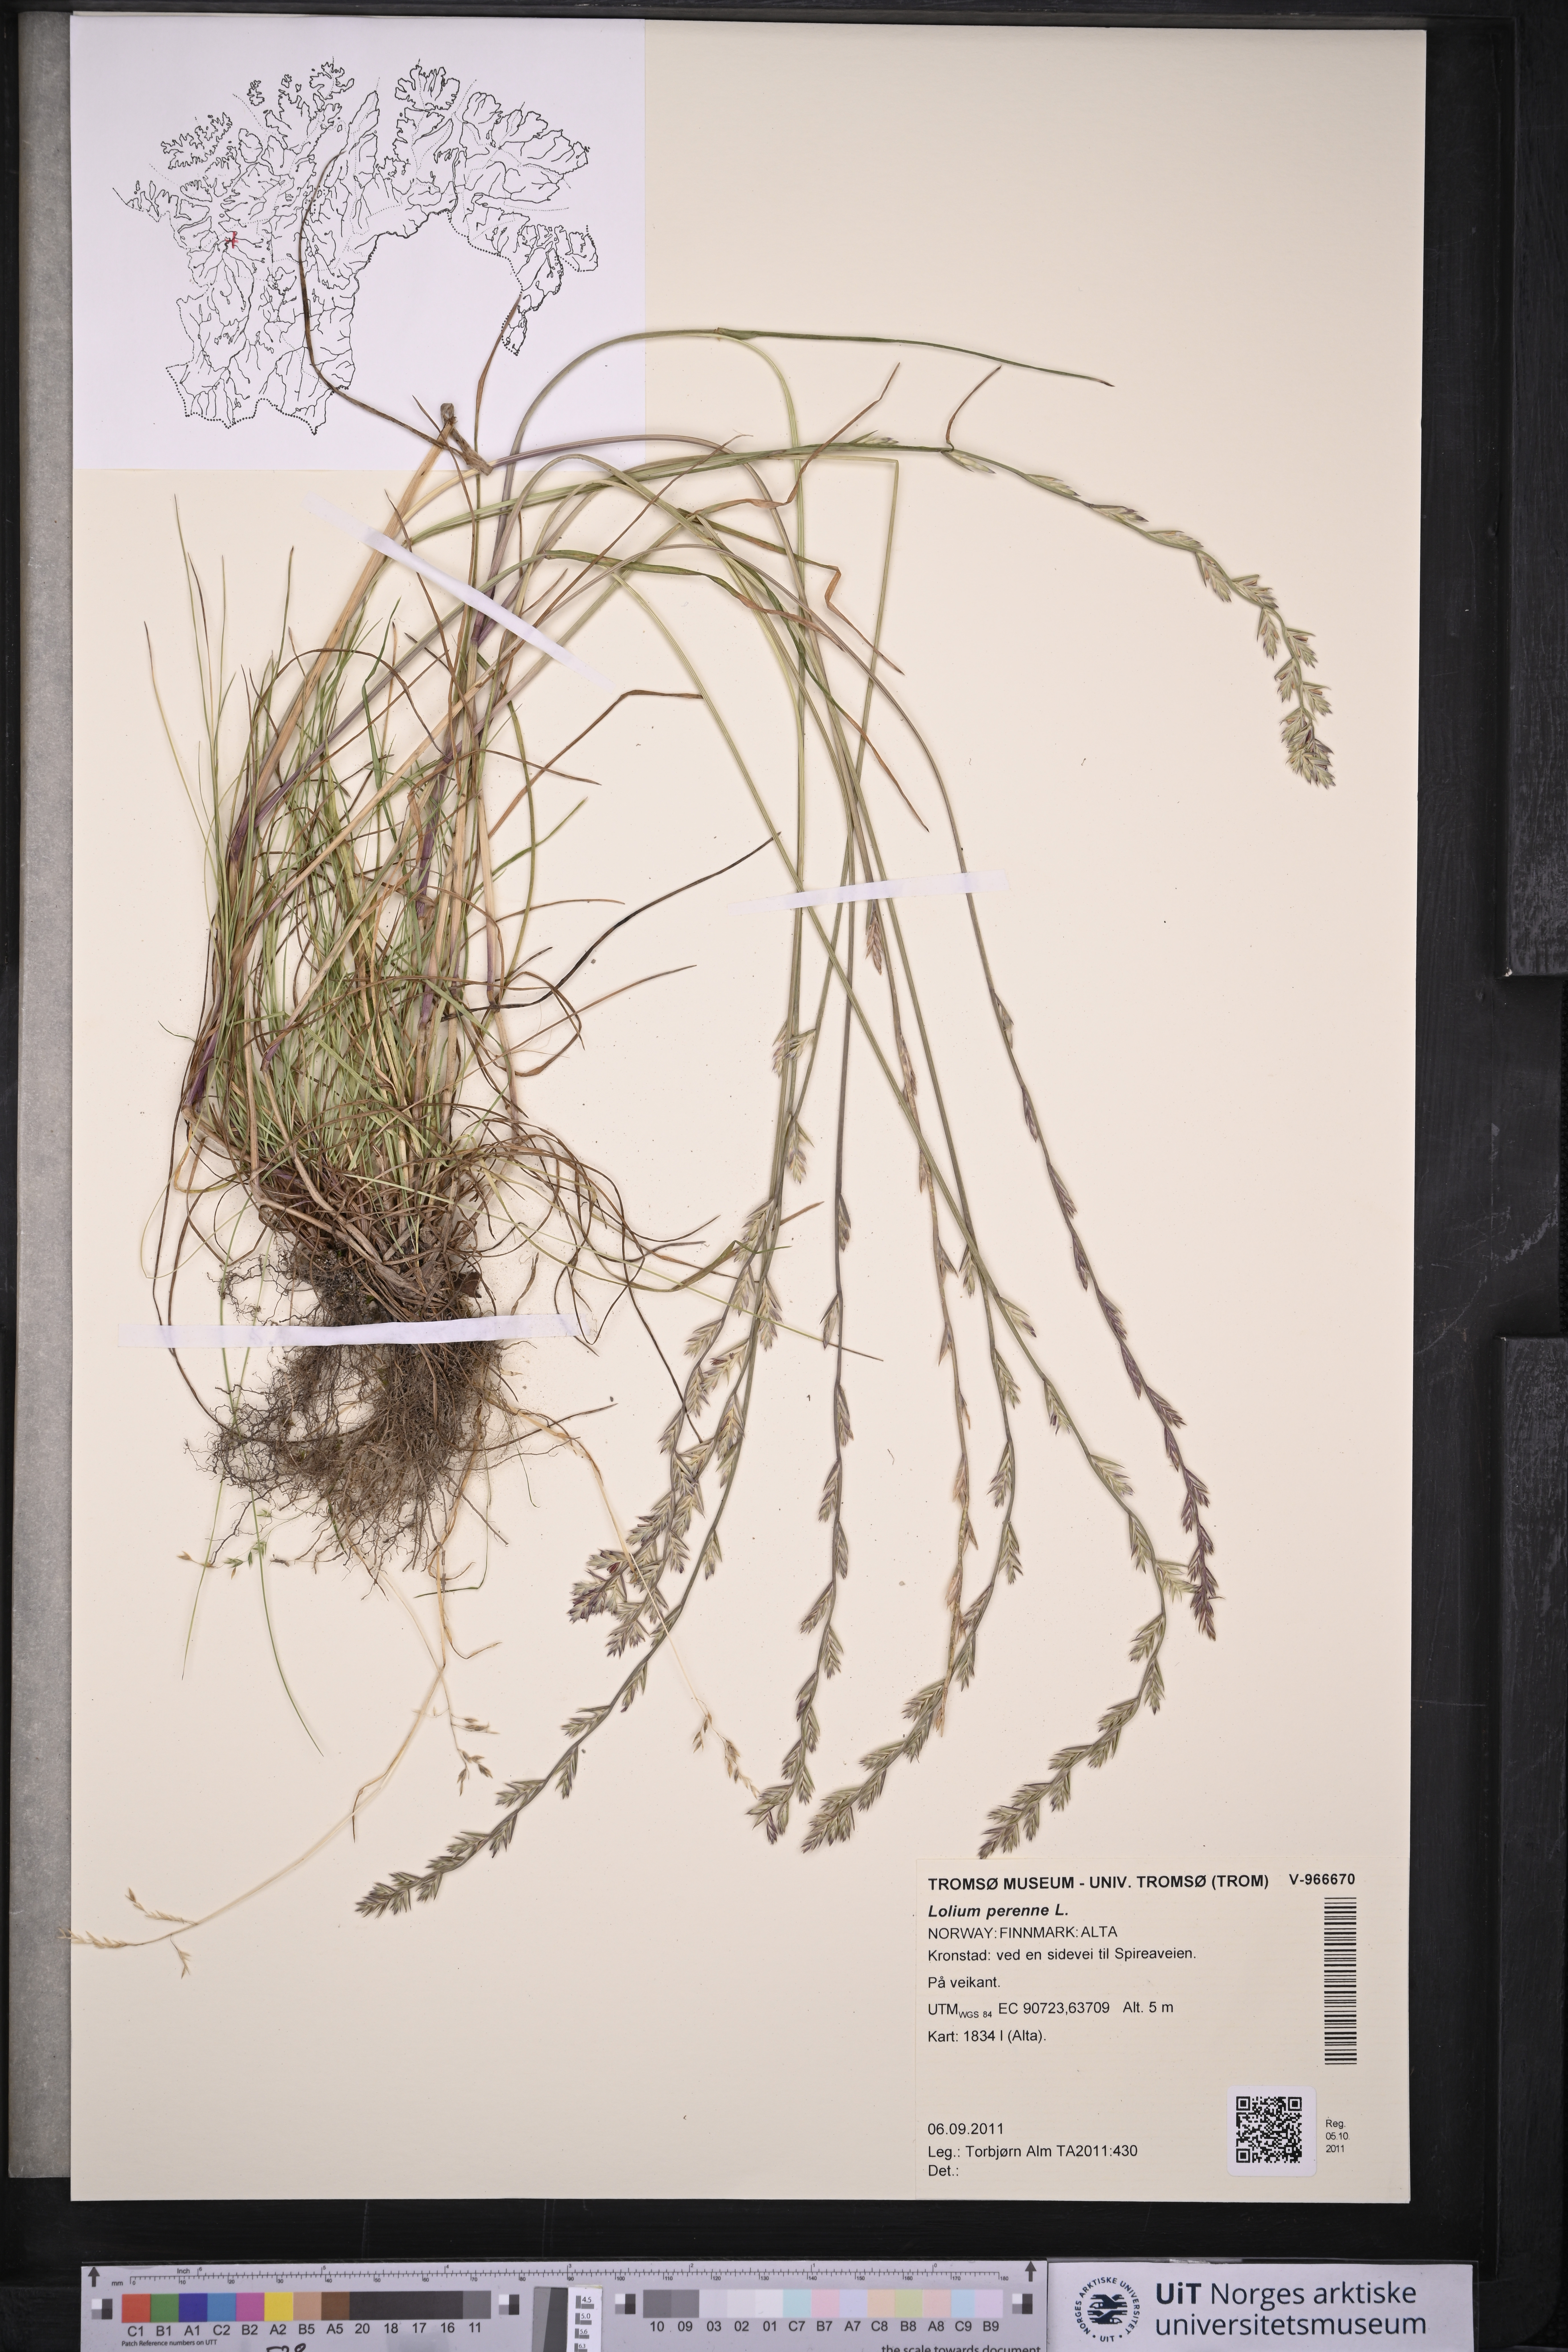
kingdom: Plantae
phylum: Tracheophyta
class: Liliopsida
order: Poales
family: Poaceae
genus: Lolium
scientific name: Lolium perenne
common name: Perennial ryegrass
